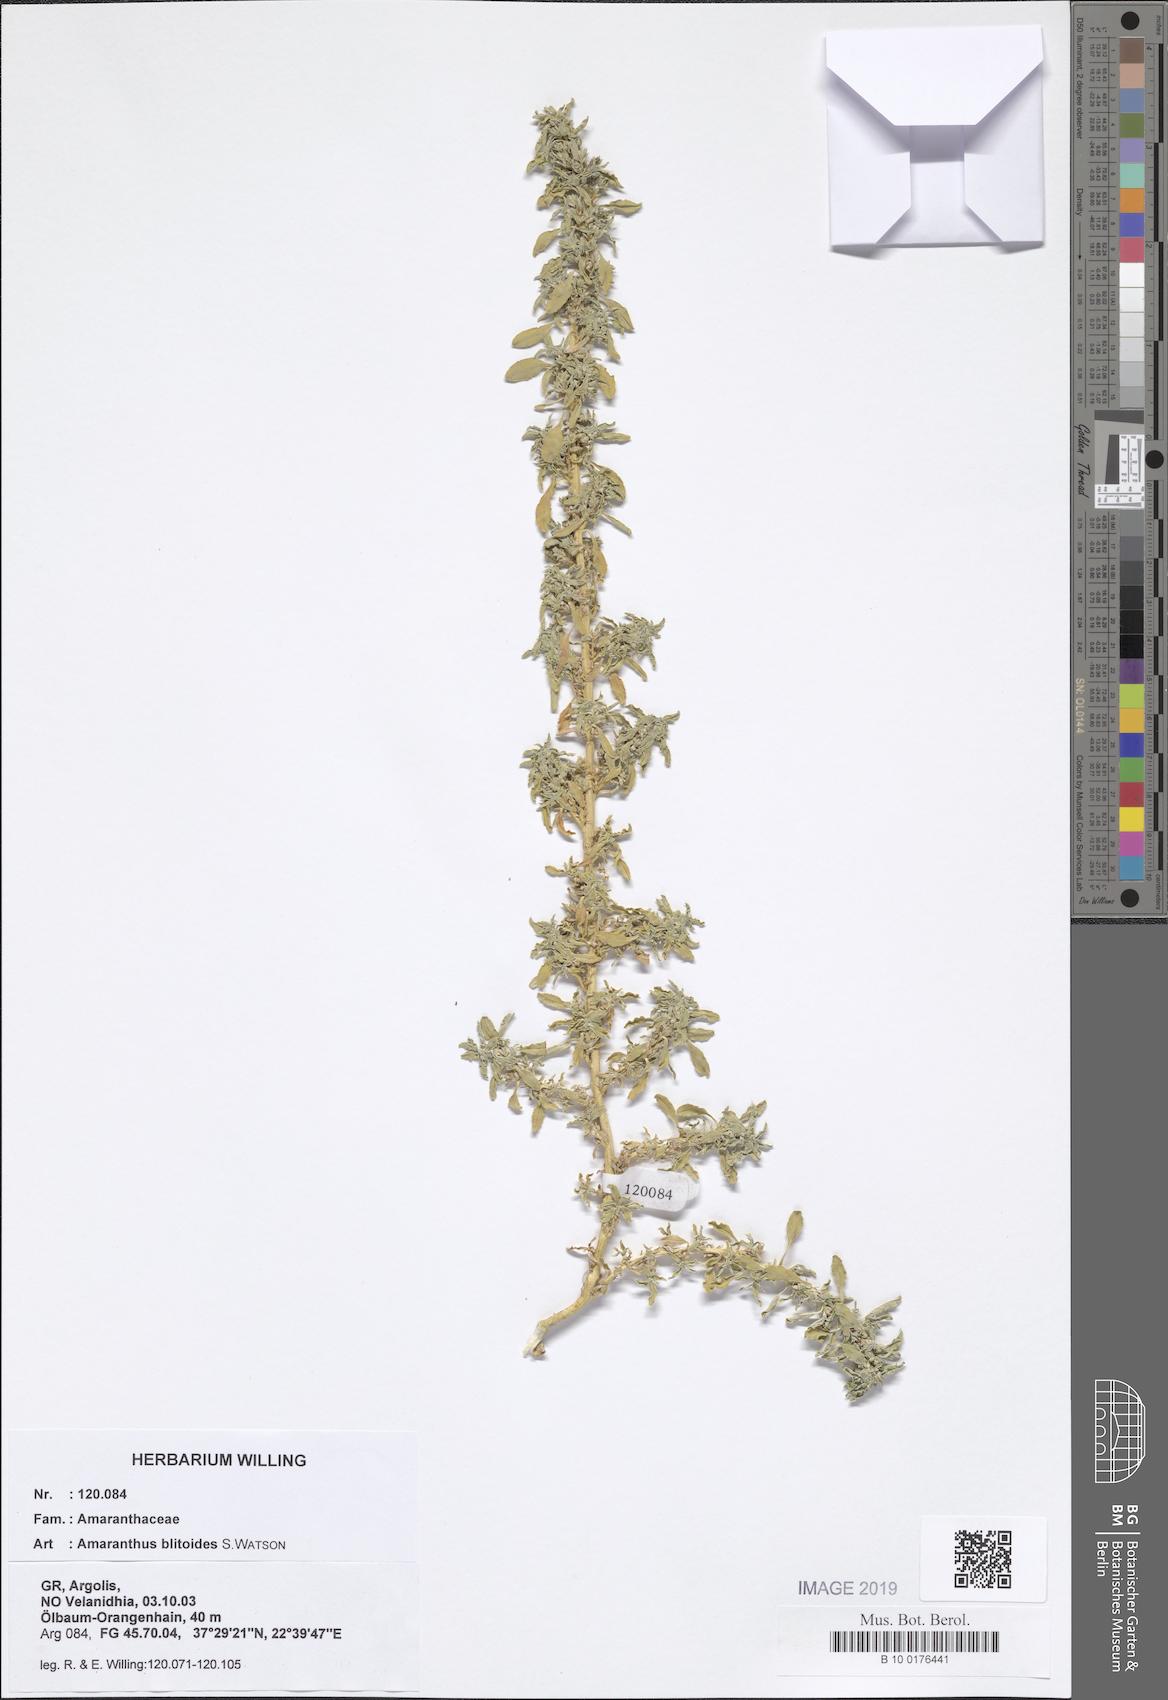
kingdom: Plantae
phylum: Tracheophyta
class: Magnoliopsida
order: Caryophyllales
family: Amaranthaceae
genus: Amaranthus
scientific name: Amaranthus blitoides
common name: Prostrate pigweed
